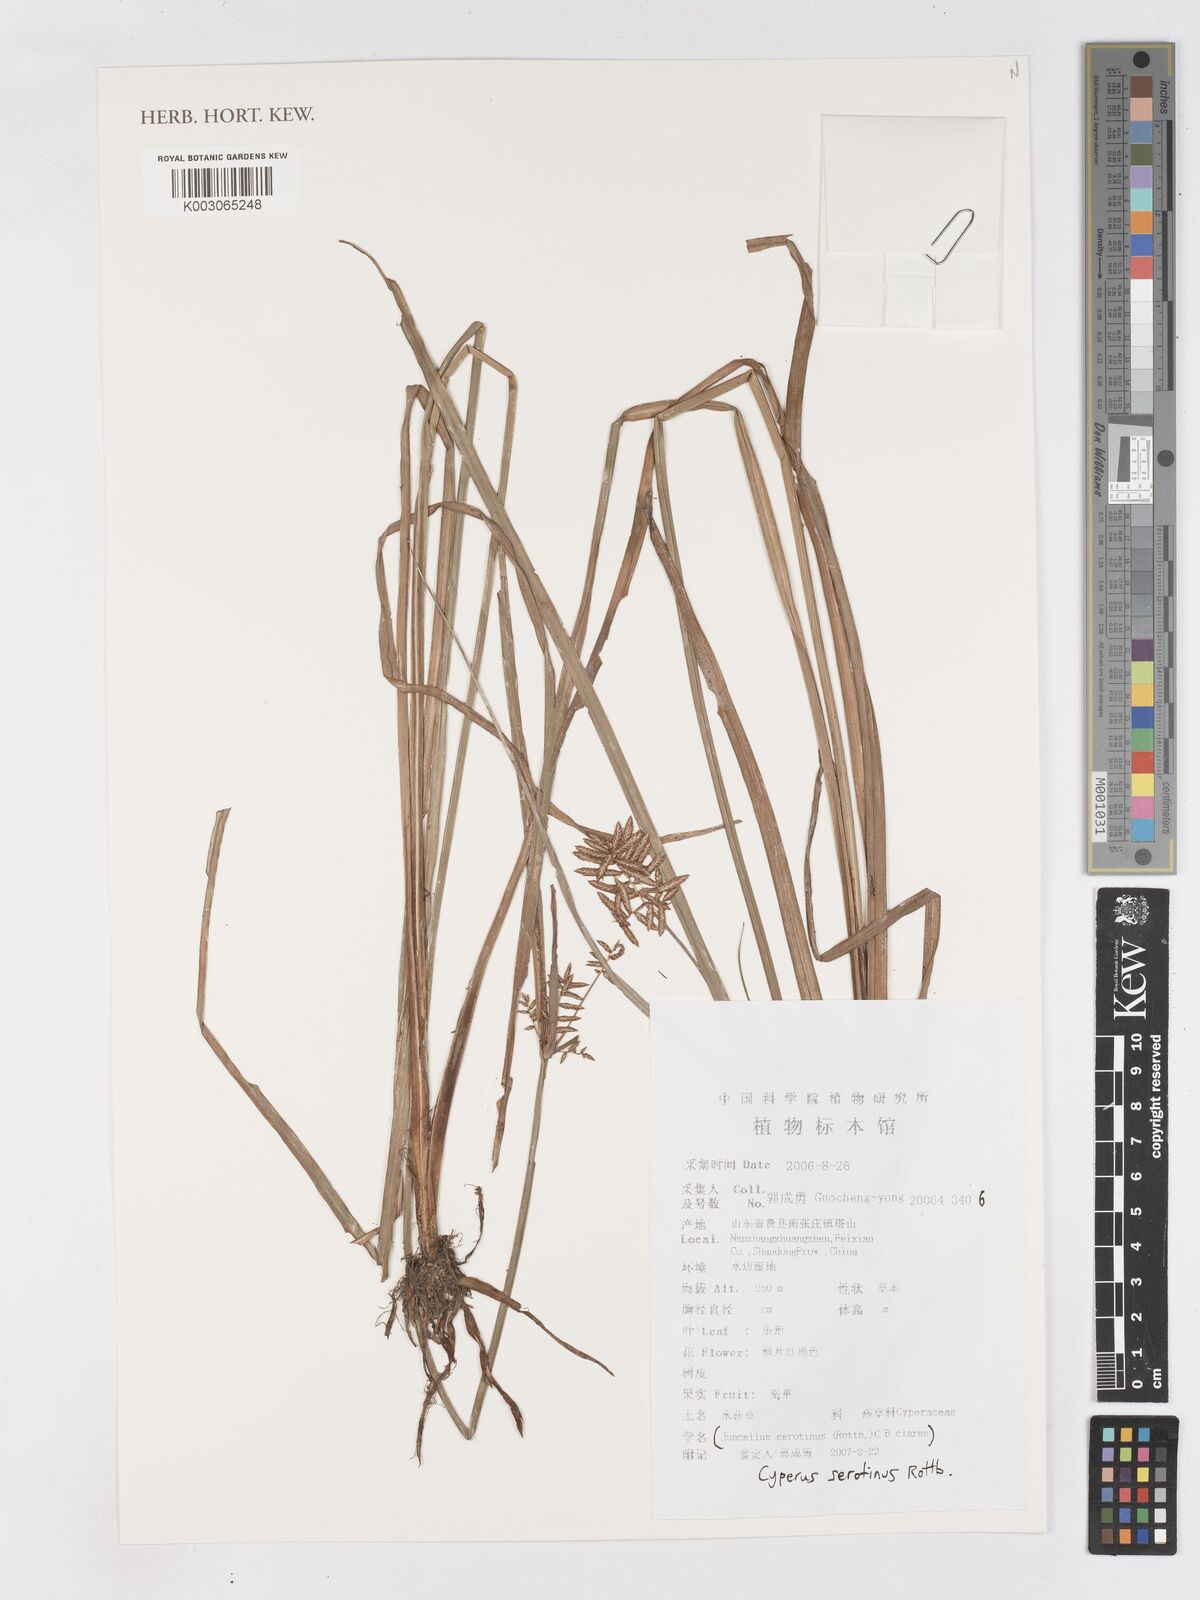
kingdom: Plantae
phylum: Tracheophyta
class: Liliopsida
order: Poales
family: Cyperaceae
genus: Cyperus
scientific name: Cyperus serotinus
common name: Tidalmarsh flatsedge
